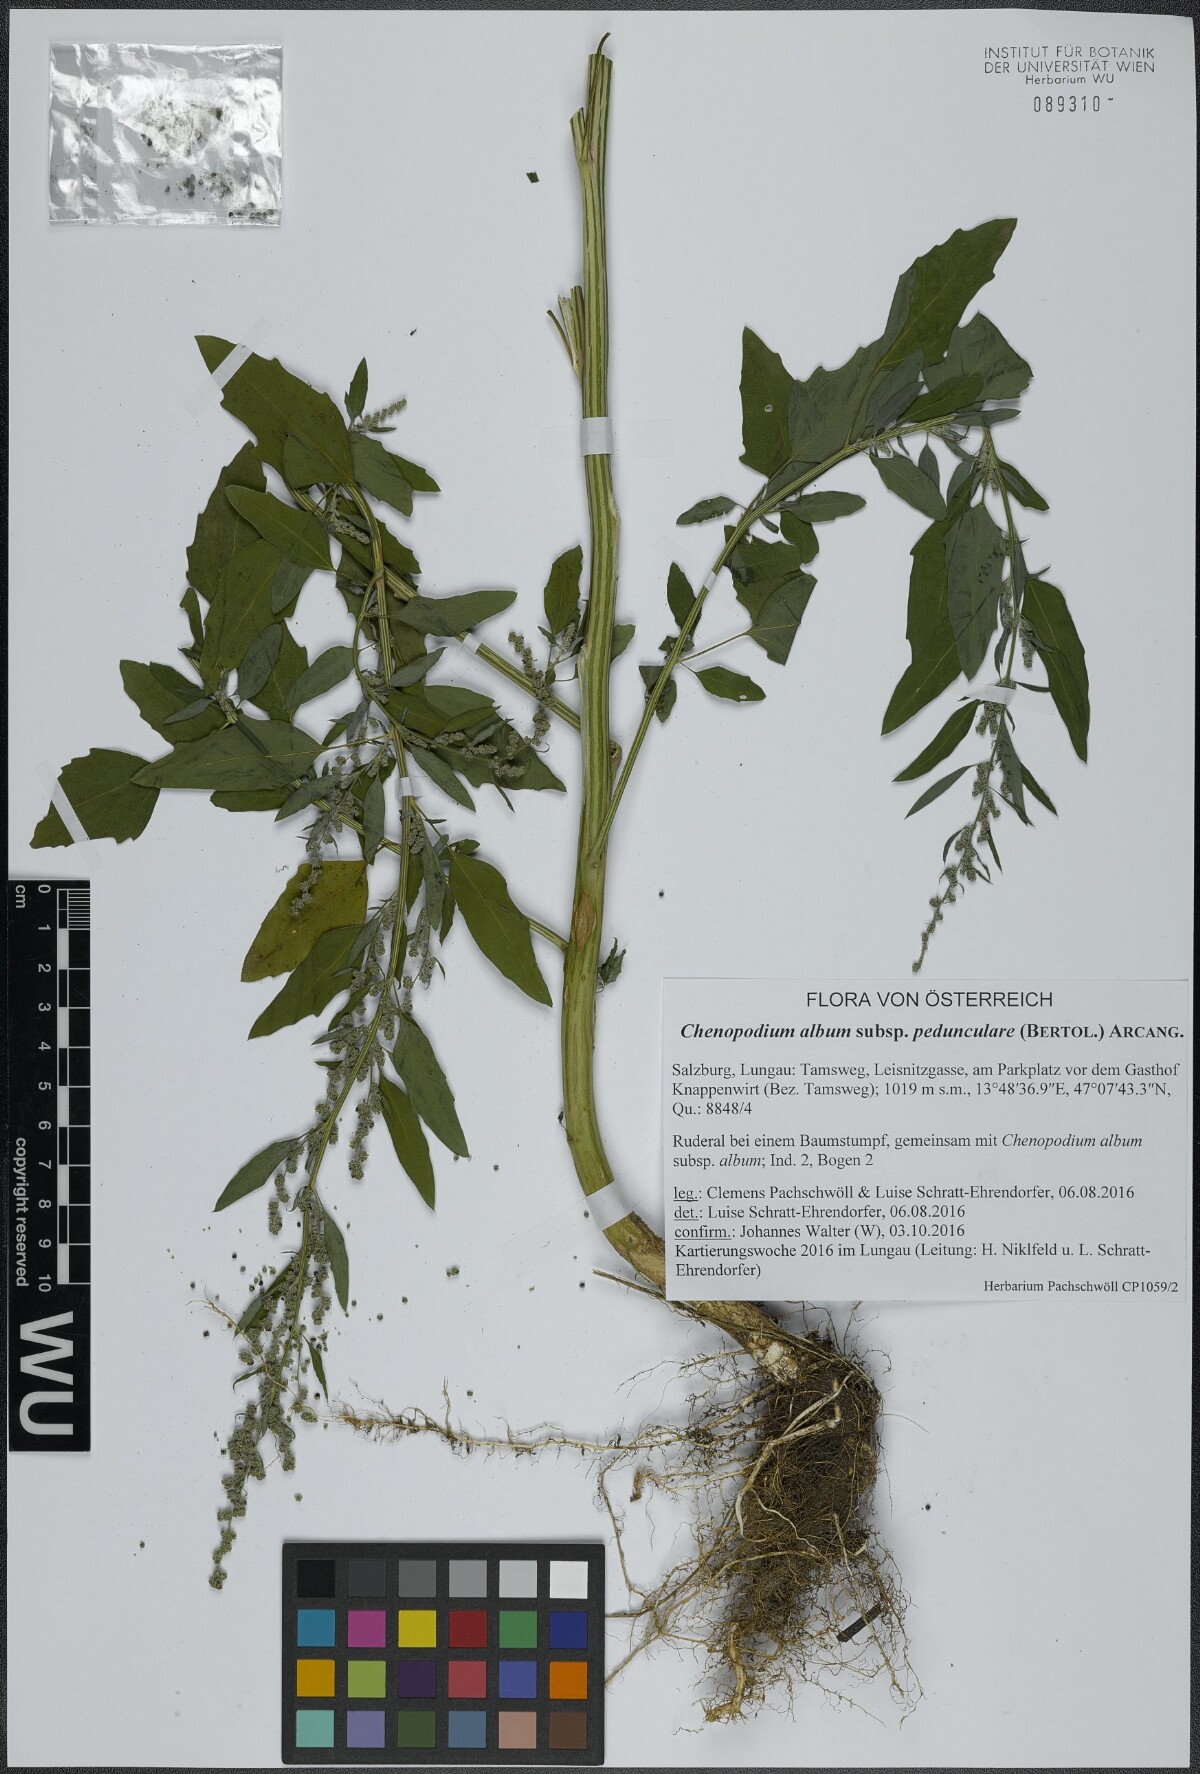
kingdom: Plantae
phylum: Tracheophyta
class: Magnoliopsida
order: Caryophyllales
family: Amaranthaceae
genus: Chenopodium
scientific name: Chenopodium album
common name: Fat-hen
